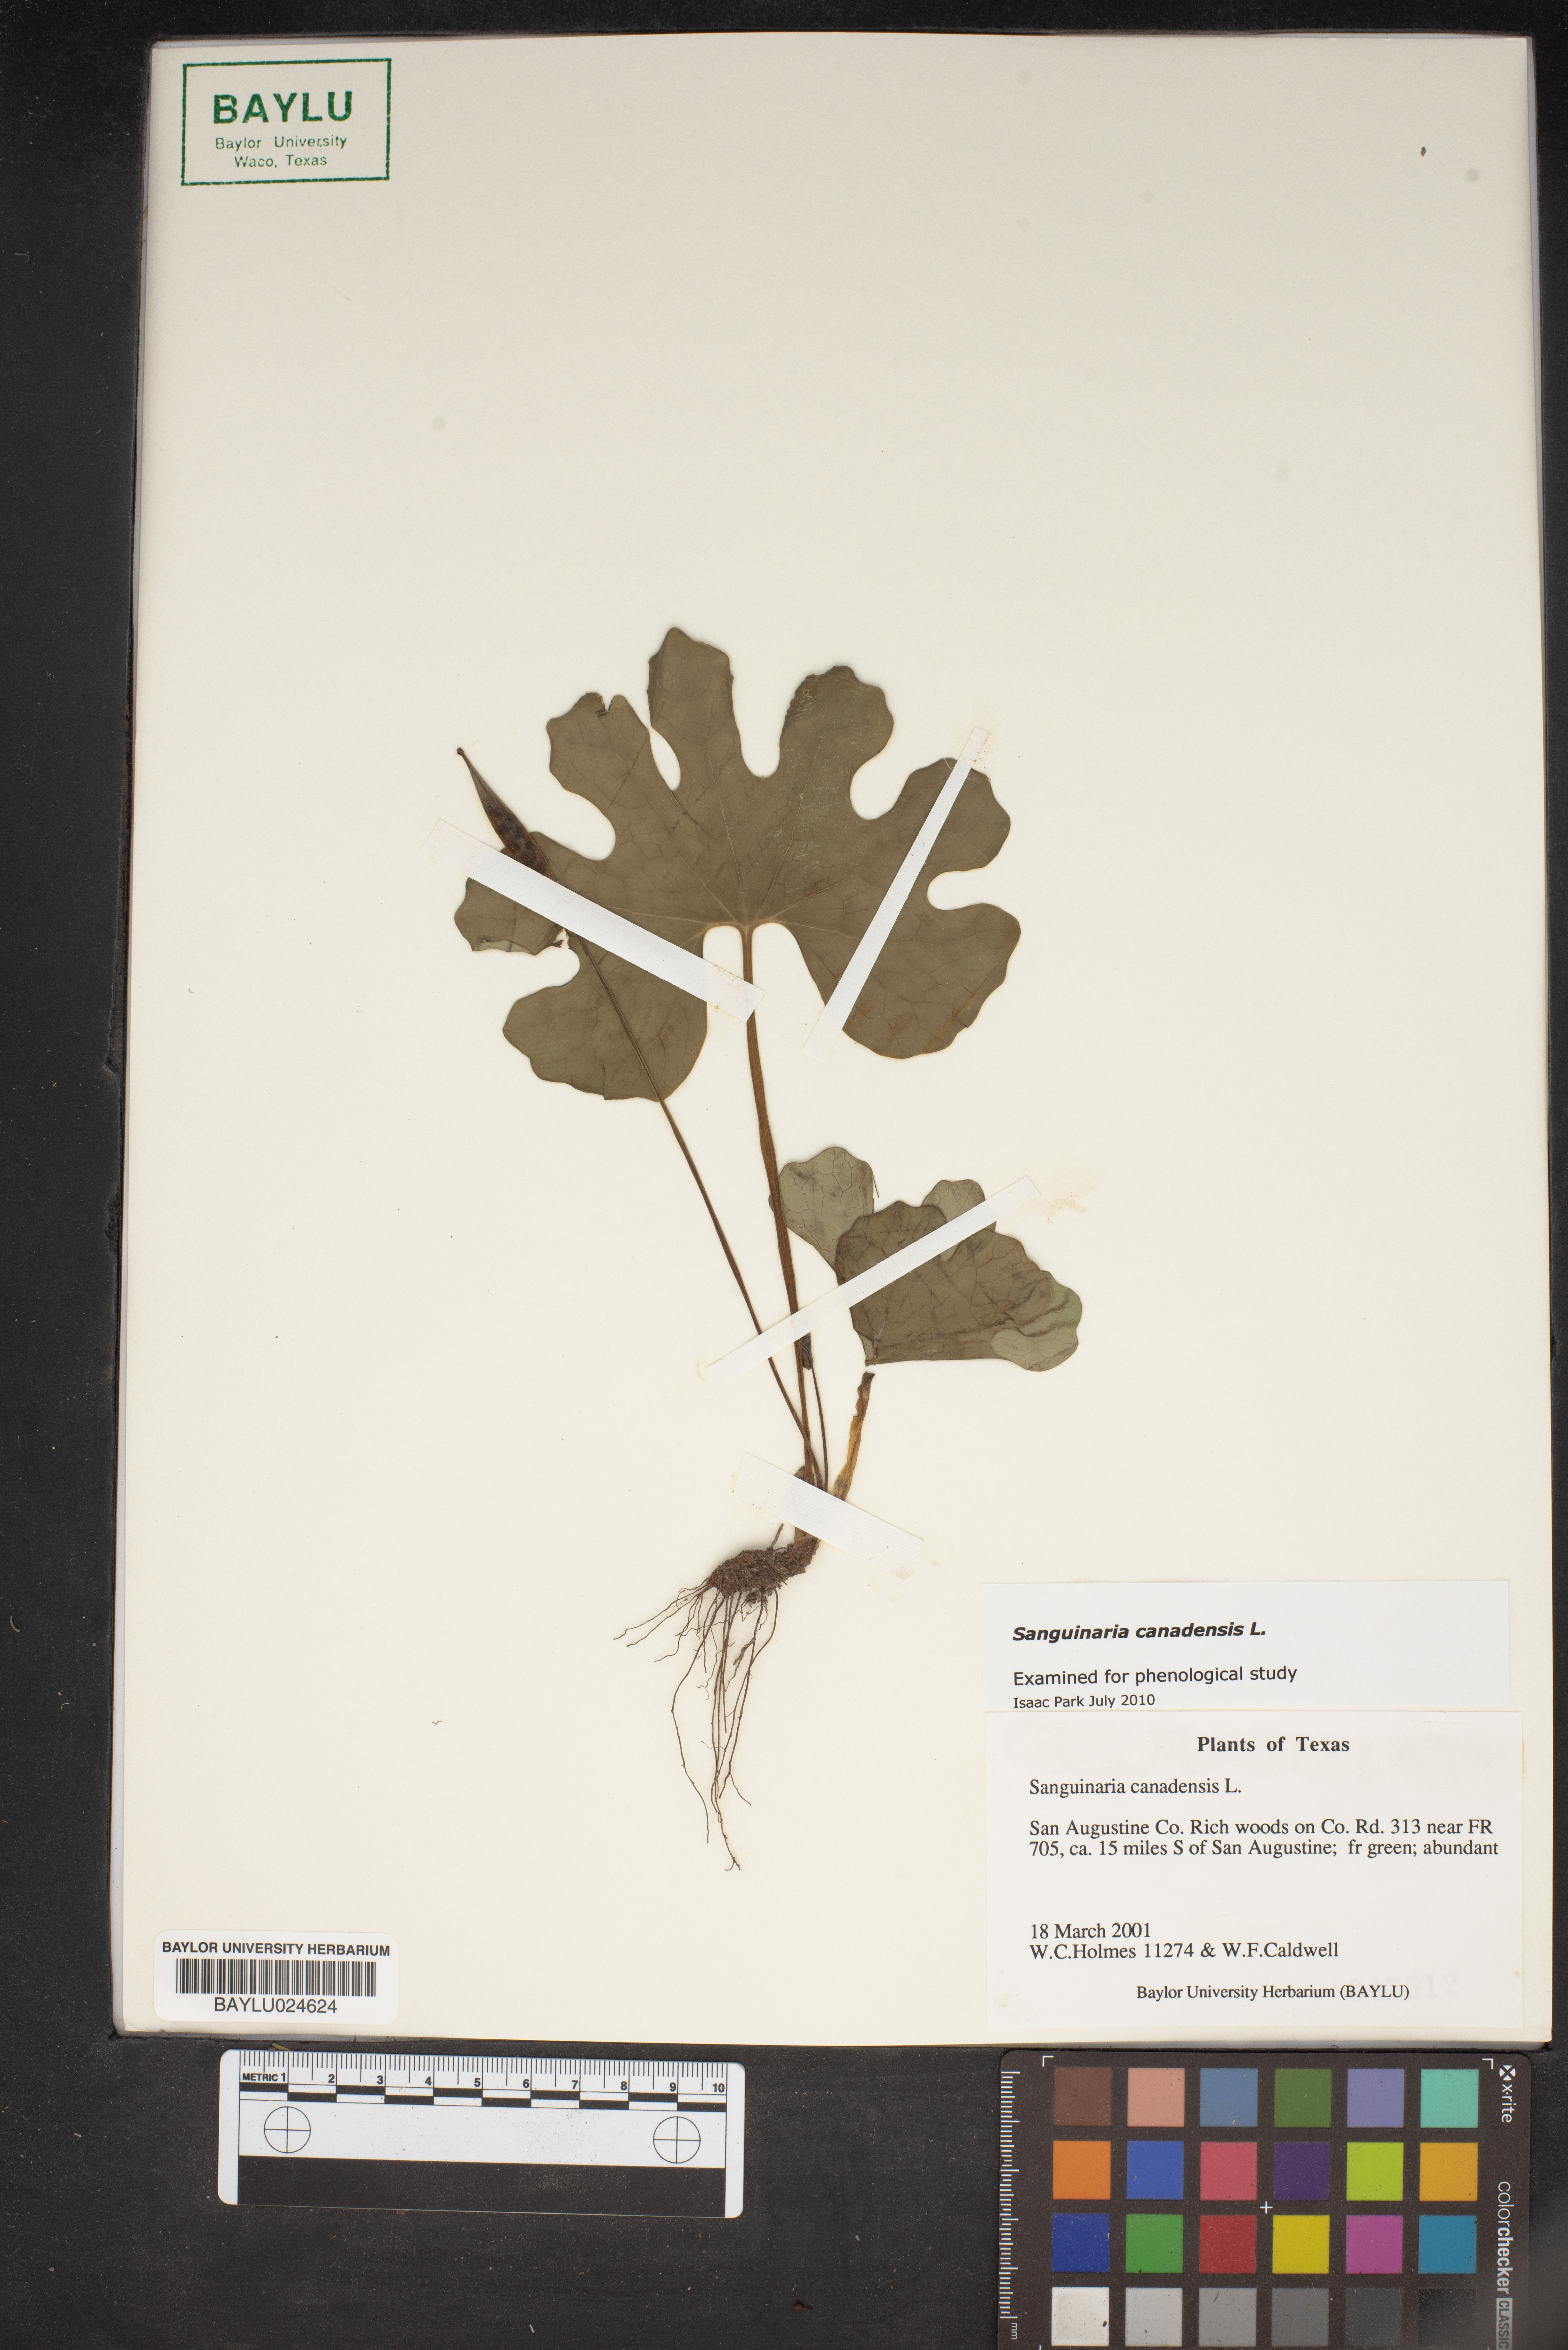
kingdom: Plantae
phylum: Tracheophyta
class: Magnoliopsida
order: Ranunculales
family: Papaveraceae
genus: Sanguinaria
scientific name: Sanguinaria canadensis
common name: Bloodroot
